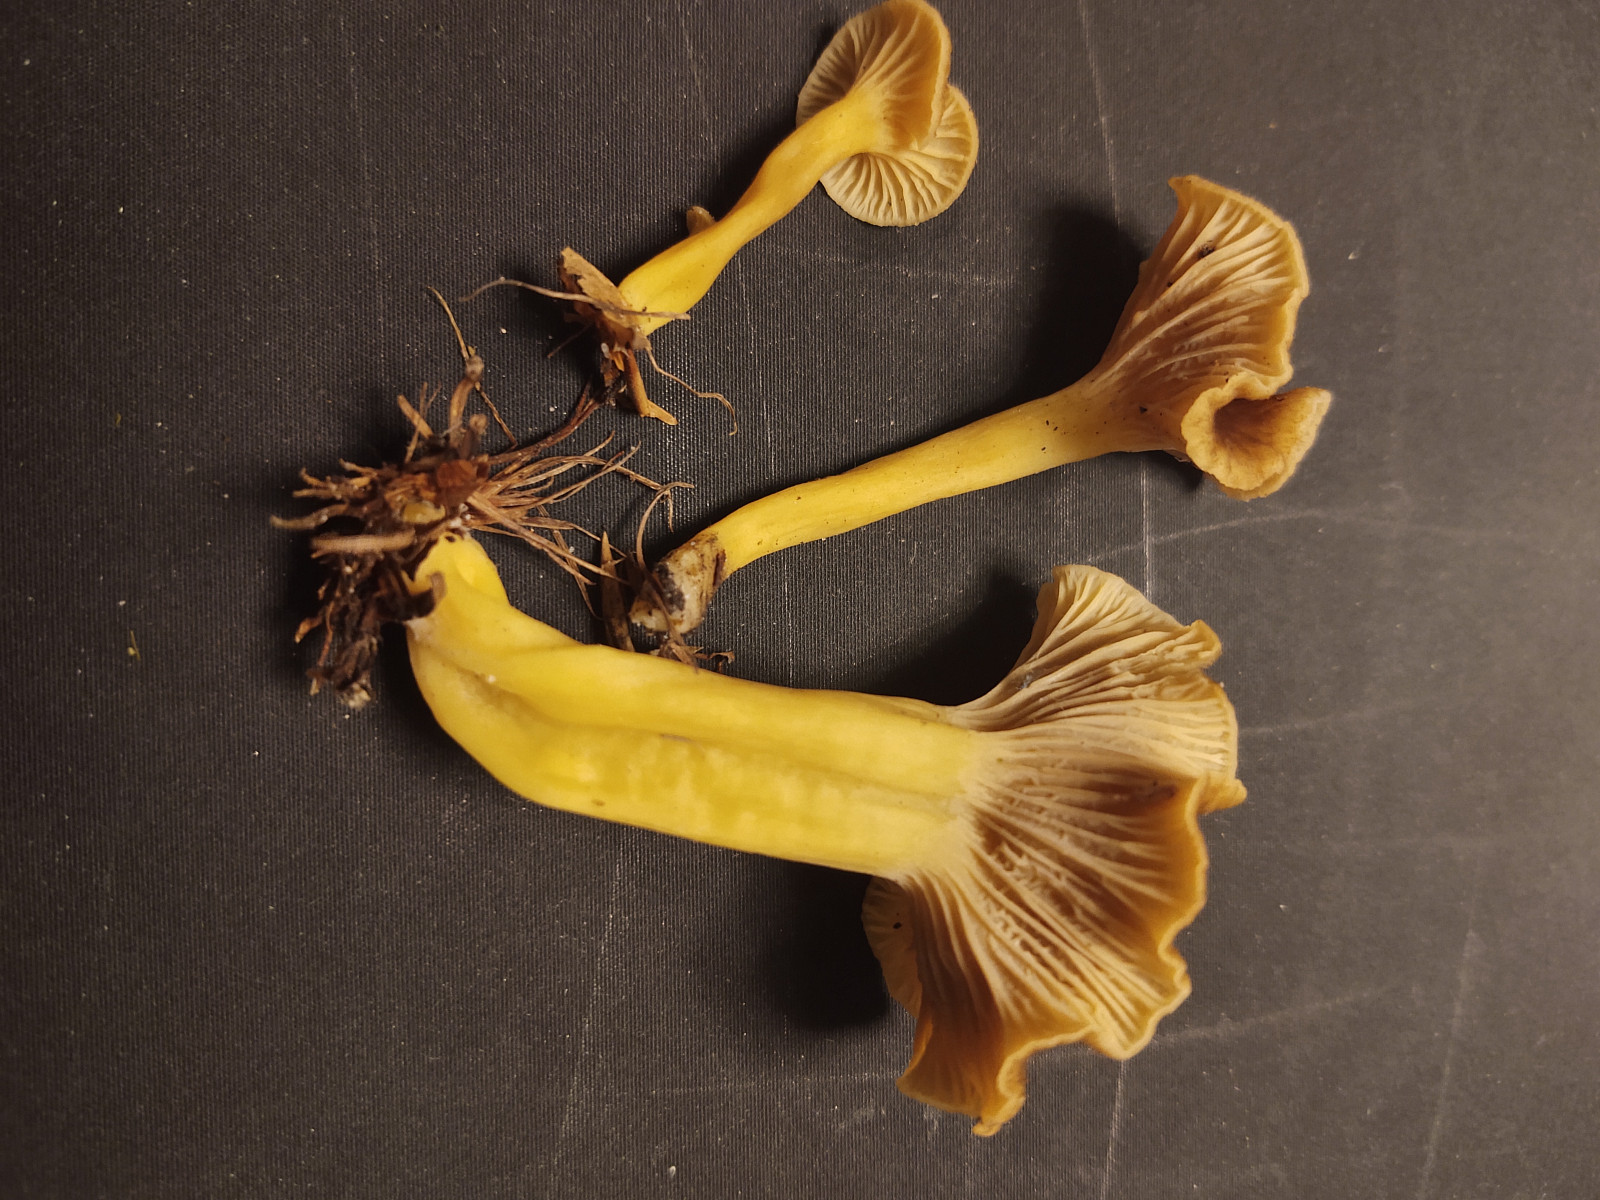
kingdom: Fungi
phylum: Basidiomycota
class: Agaricomycetes
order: Cantharellales
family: Hydnaceae
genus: Craterellus
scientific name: Craterellus tubaeformis
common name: tragt-kantarel
